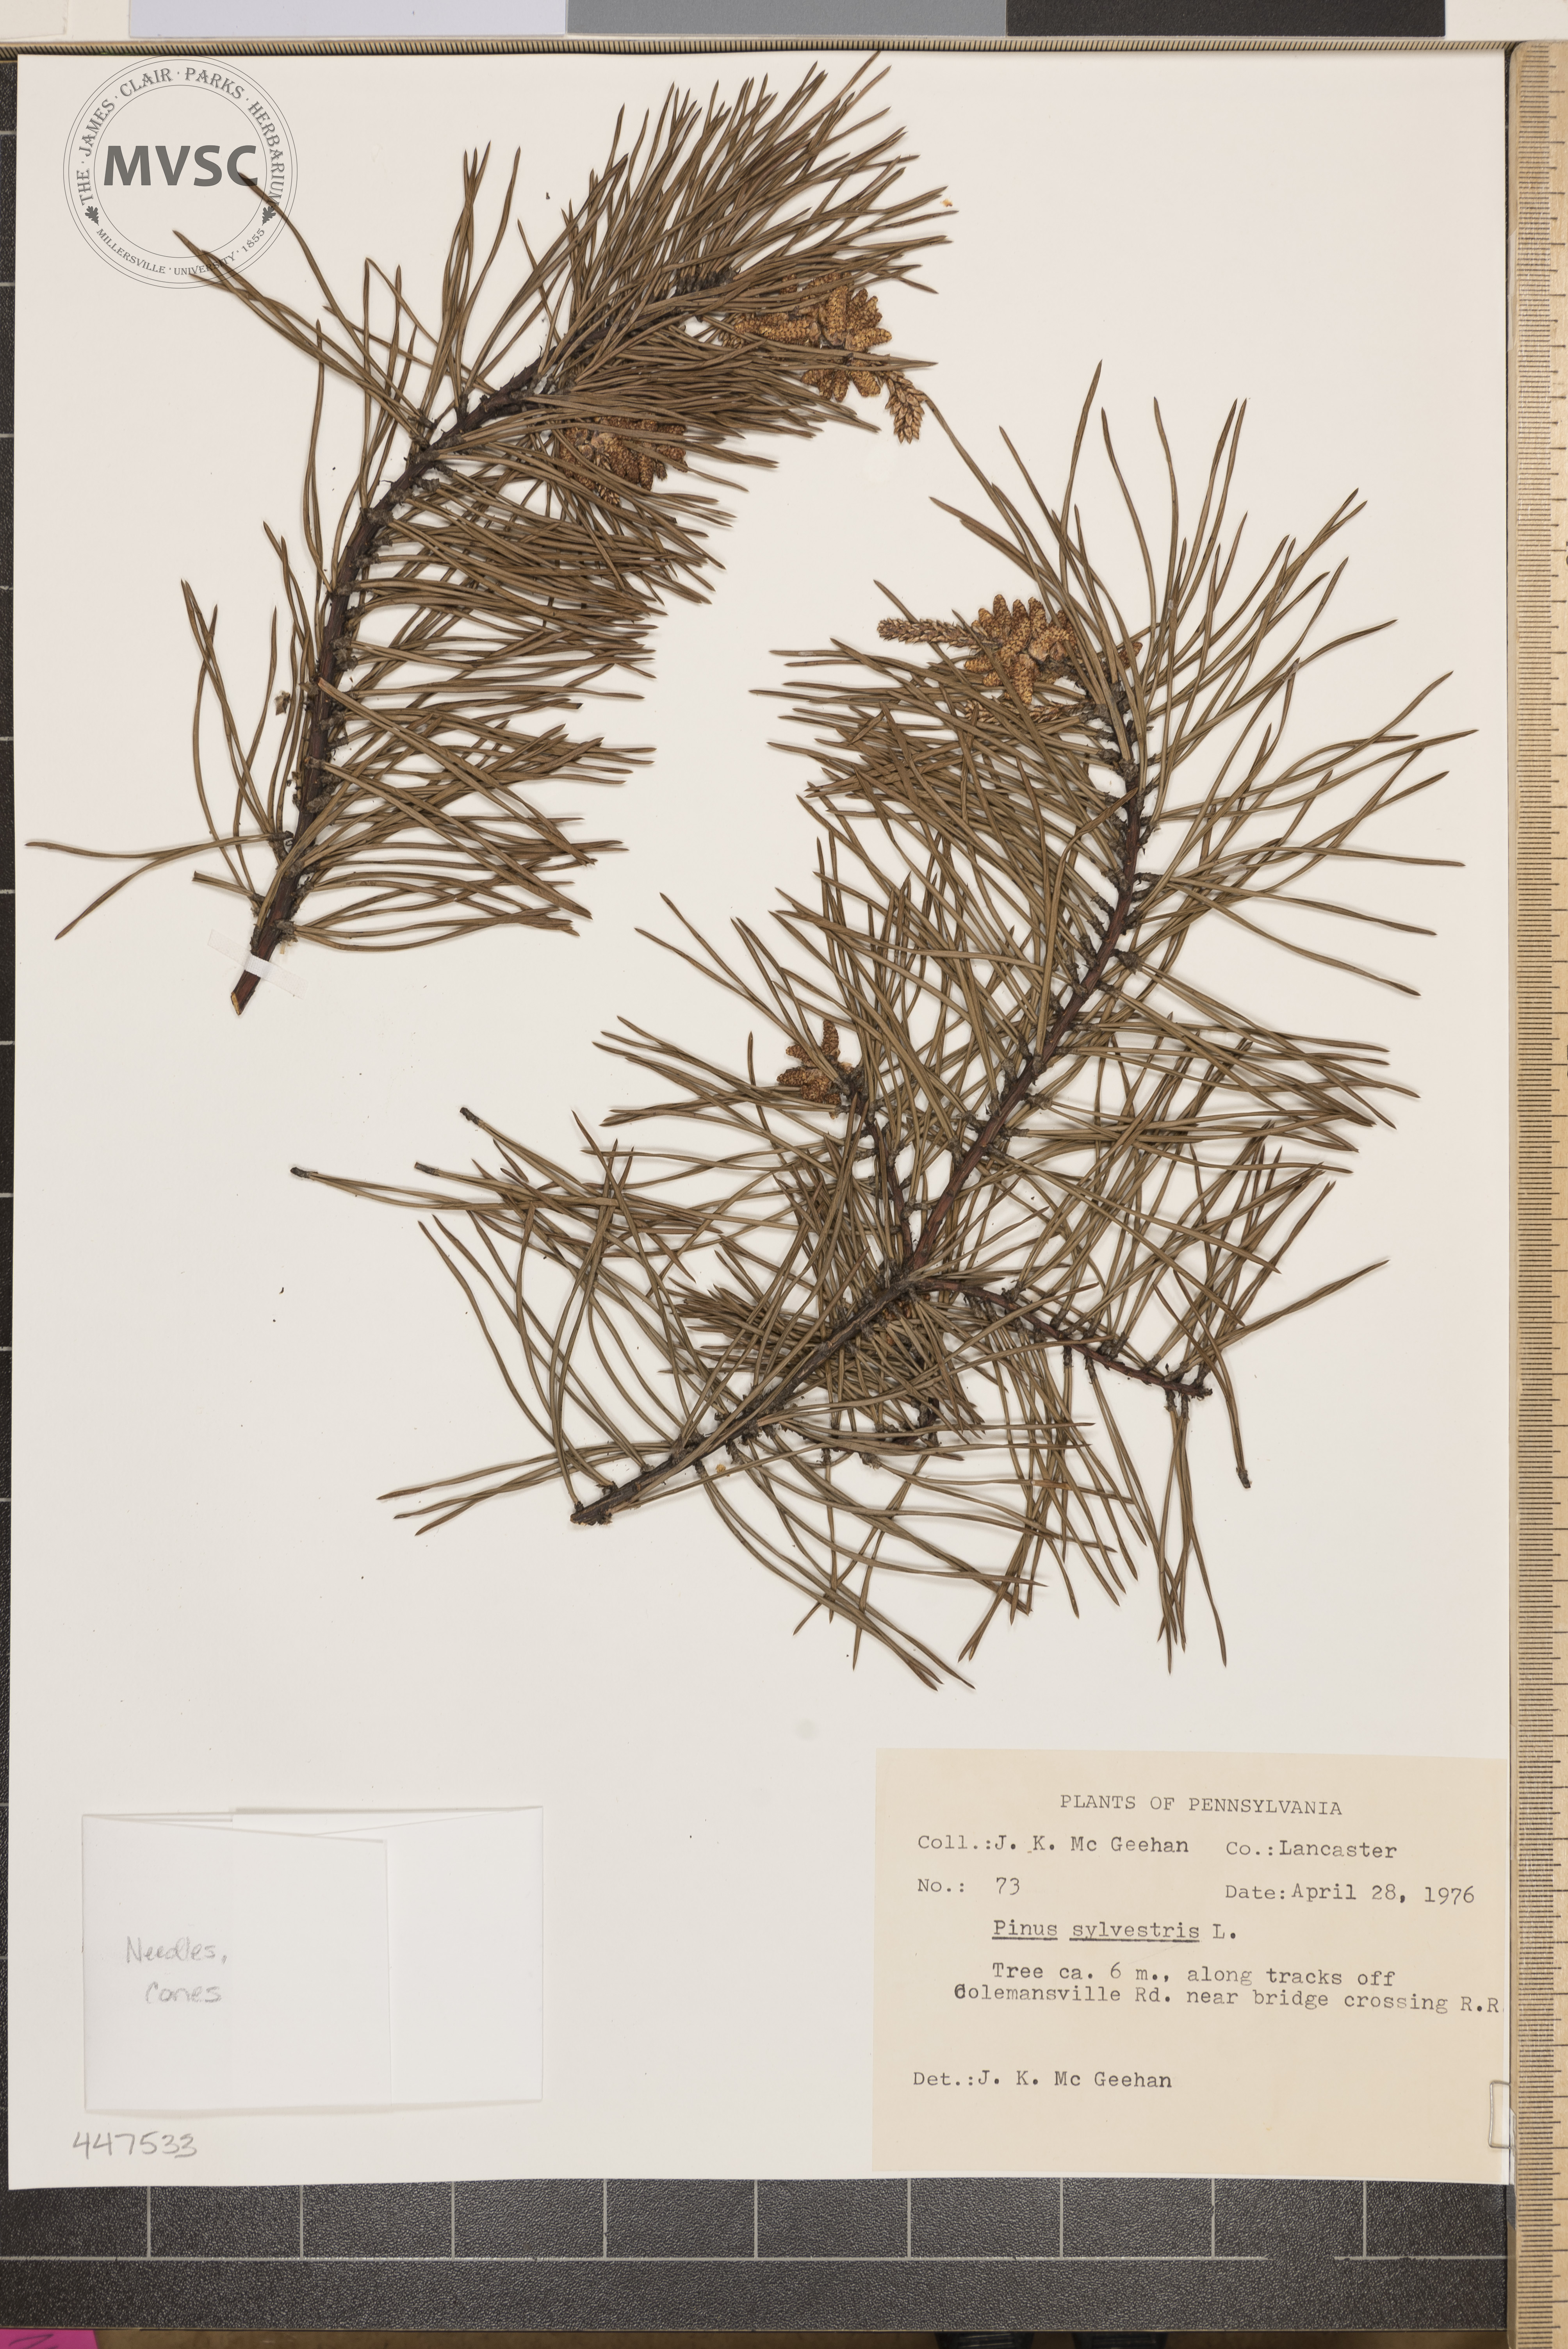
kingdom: Plantae
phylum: Tracheophyta
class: Pinopsida
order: Pinales
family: Pinaceae
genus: Pinus
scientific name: Pinus sylvestris
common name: Scots pine
